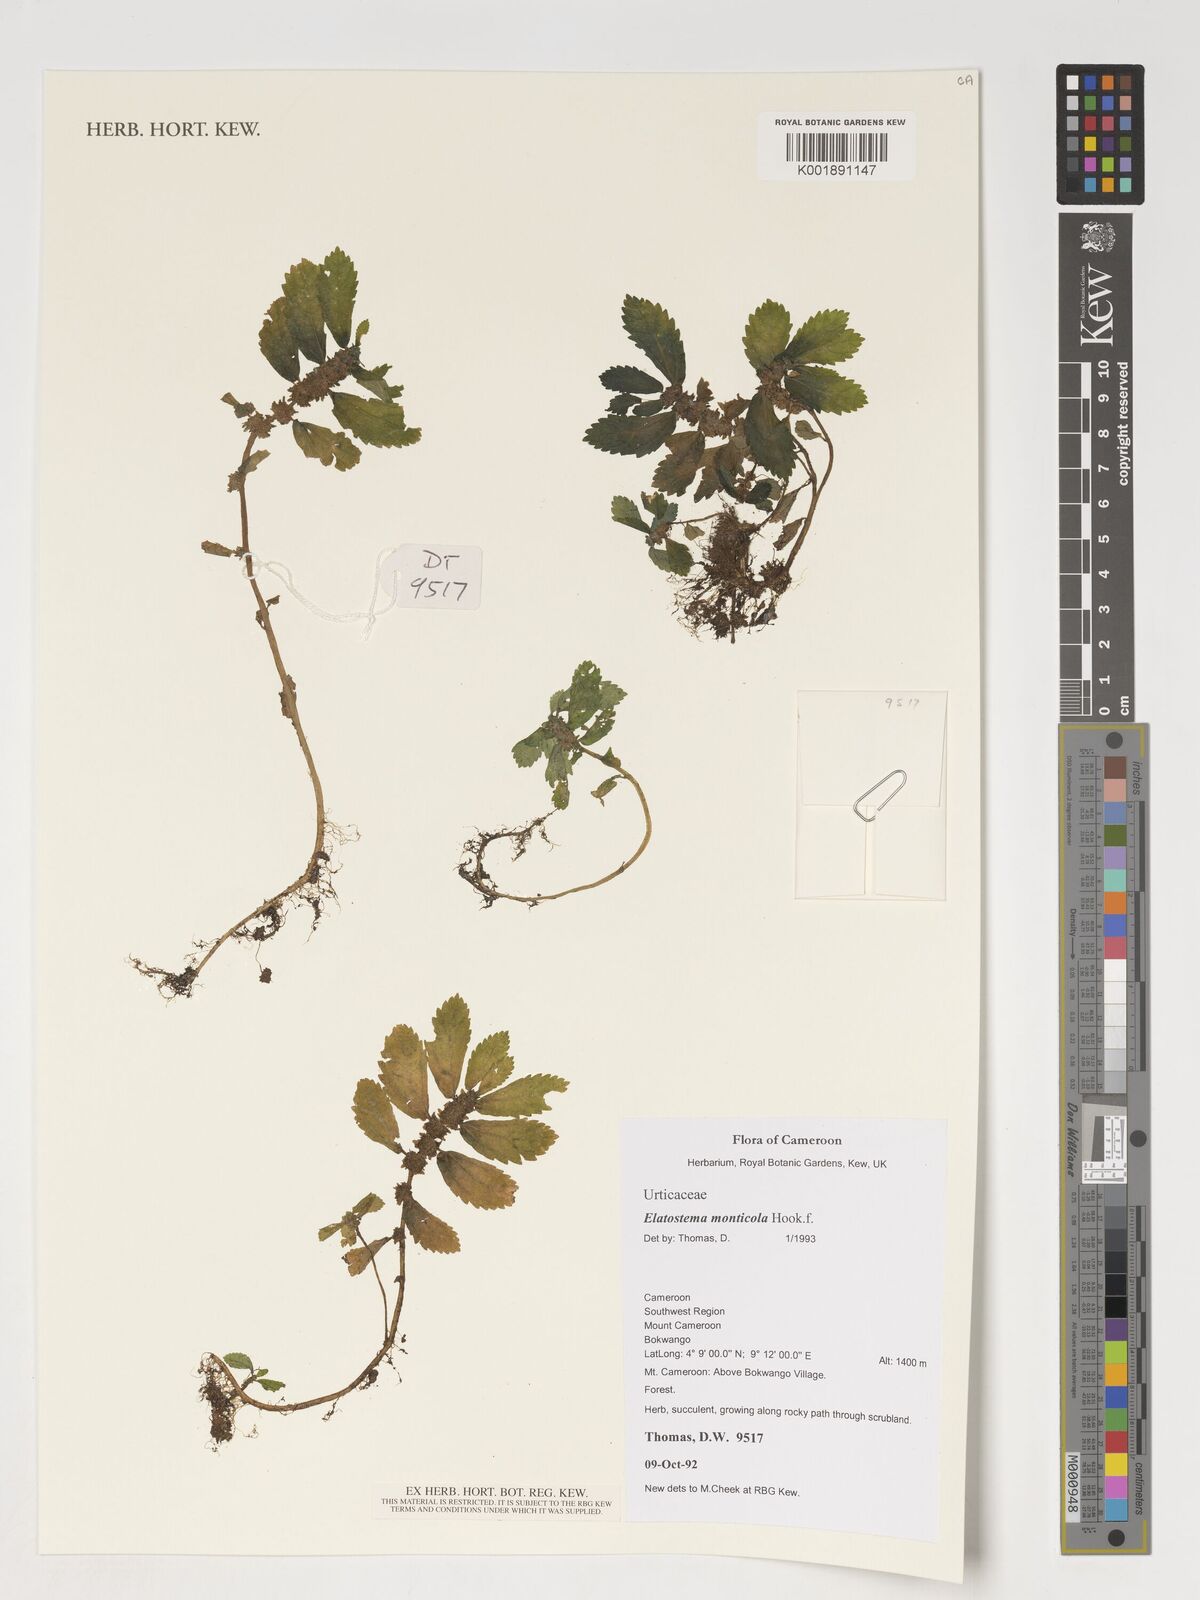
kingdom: Plantae
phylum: Tracheophyta
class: Magnoliopsida
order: Rosales
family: Urticaceae
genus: Elatostema
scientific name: Elatostema monticola
